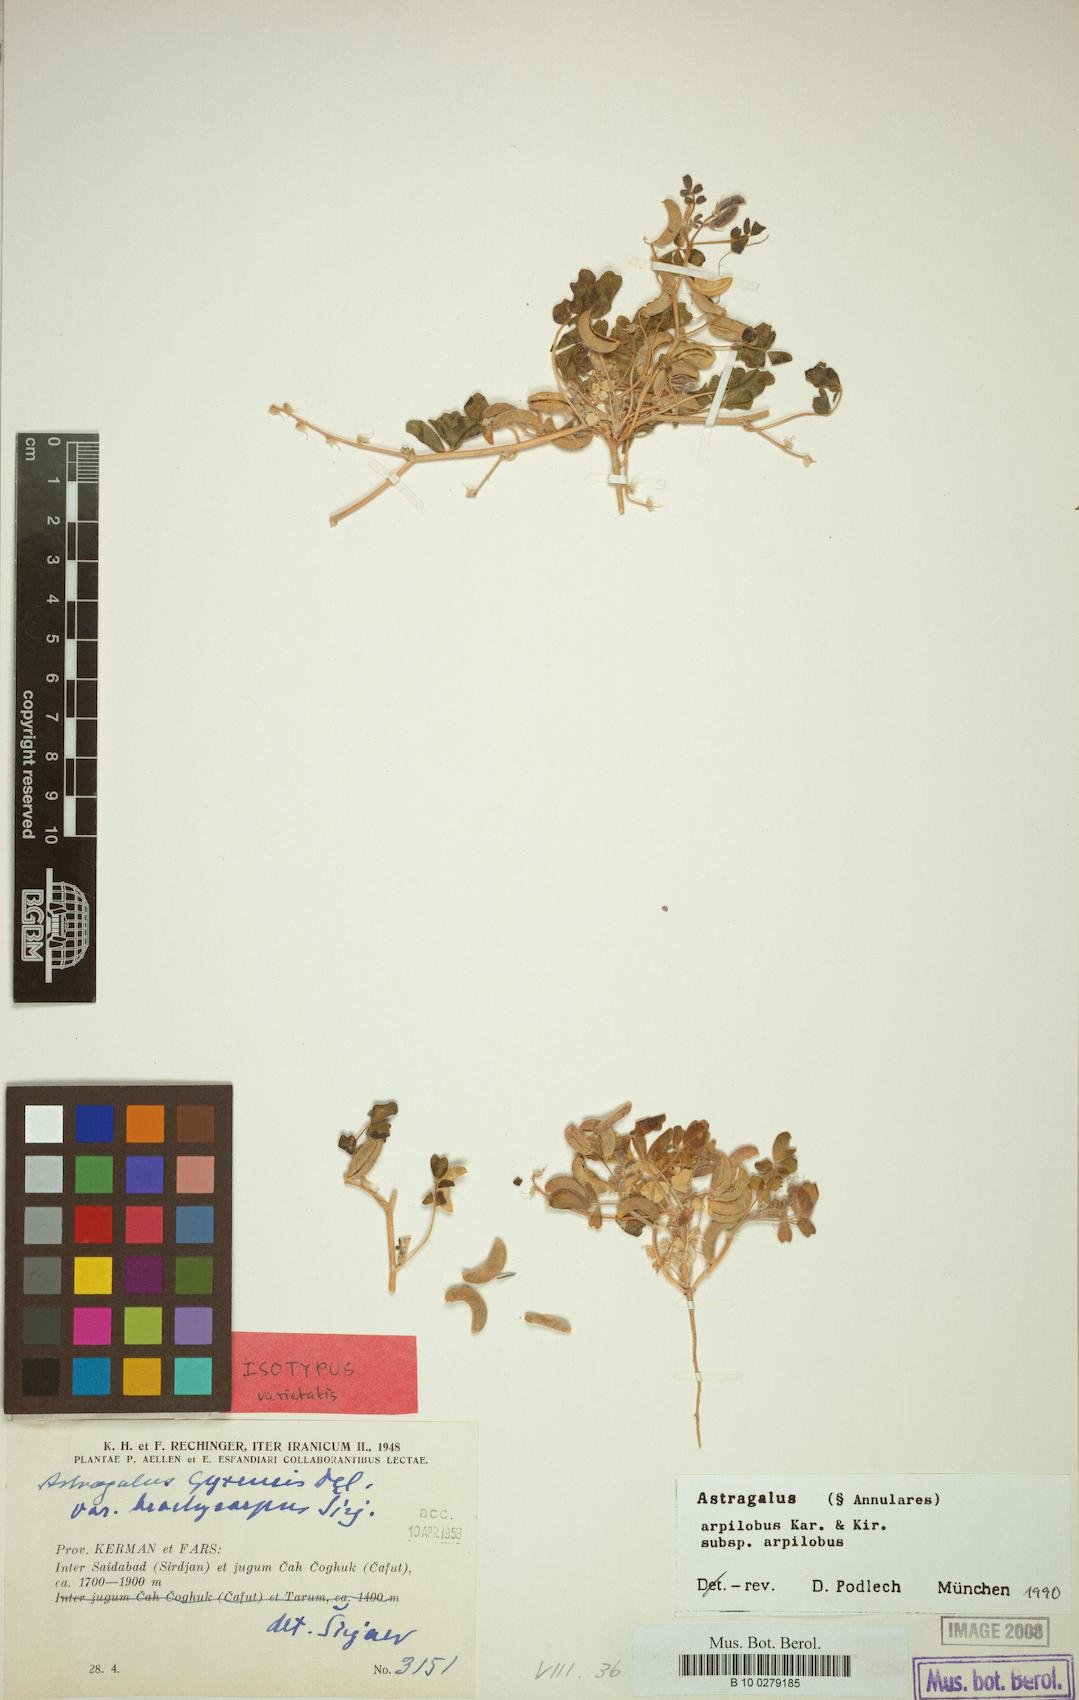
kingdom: Plantae
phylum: Tracheophyta
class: Magnoliopsida
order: Fabales
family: Fabaceae
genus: Astragalus
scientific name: Astragalus arpilobus
